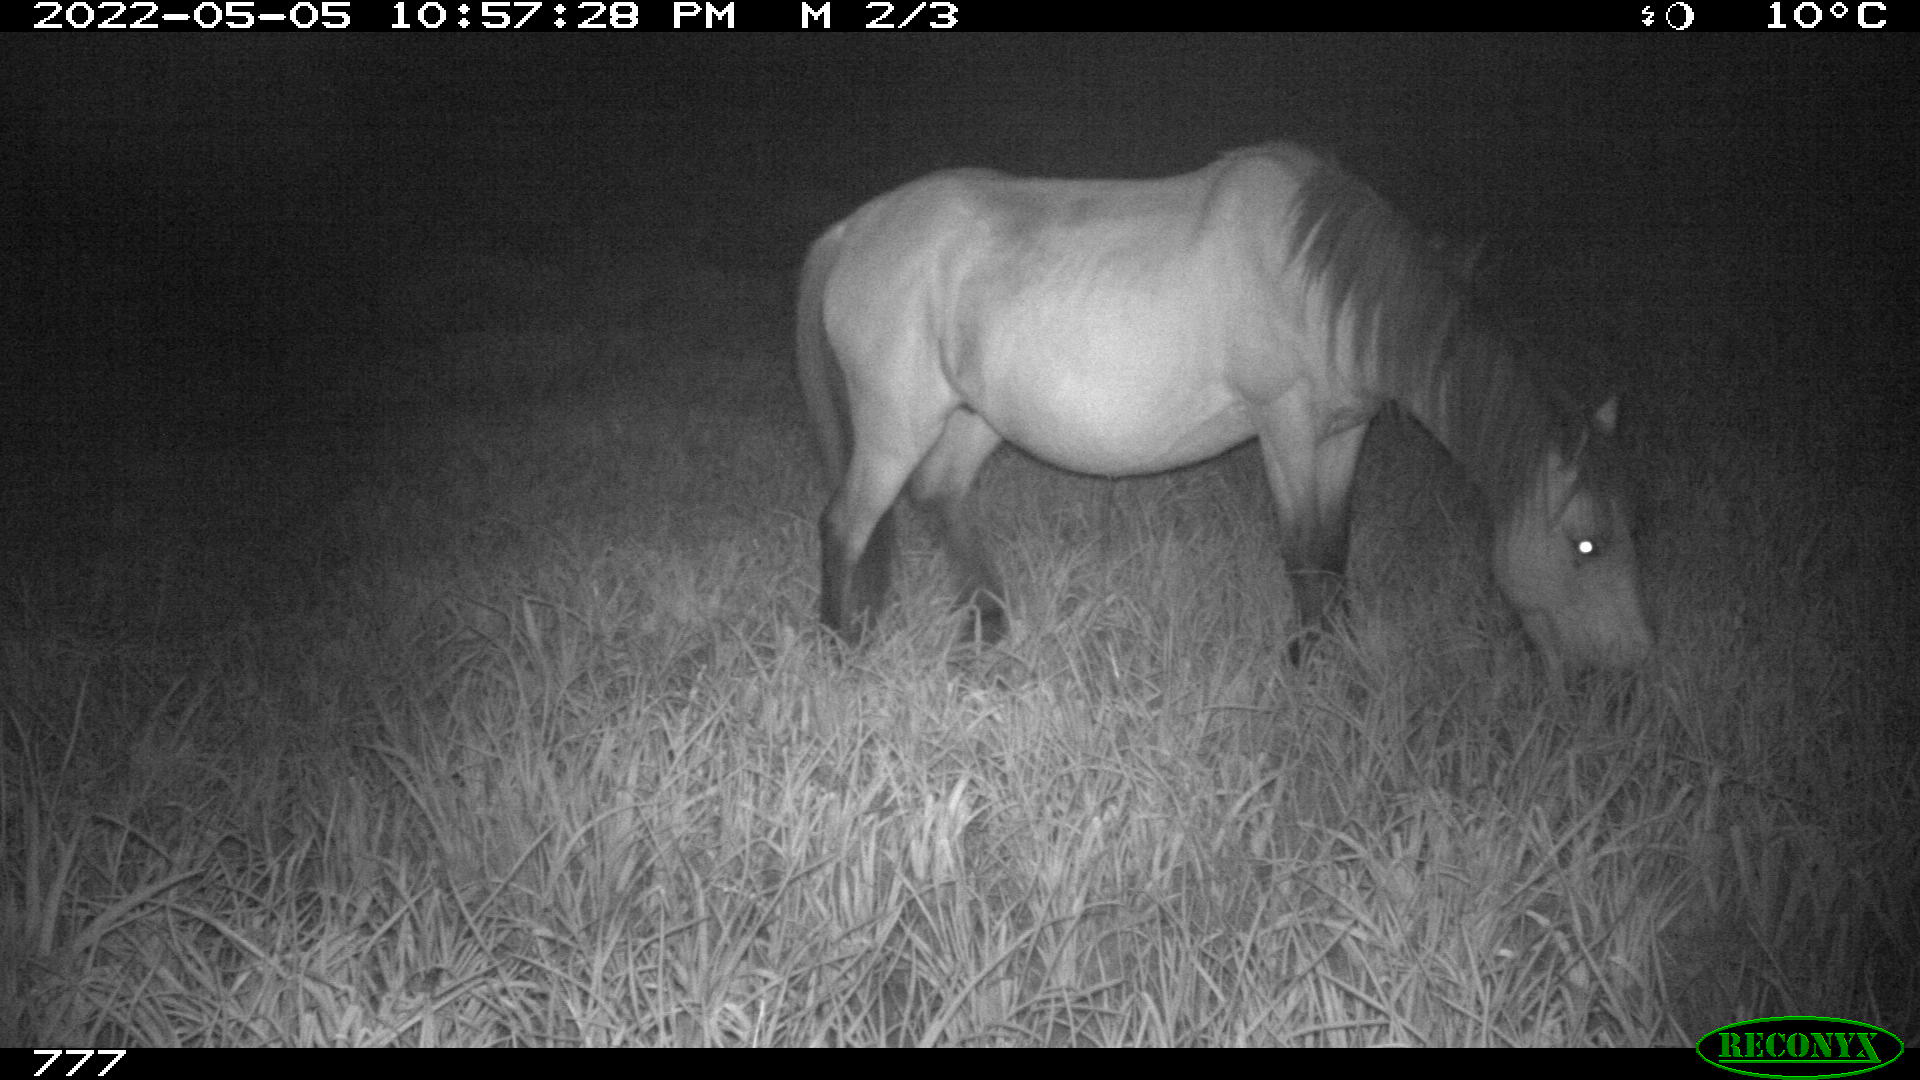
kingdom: Animalia
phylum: Chordata
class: Mammalia
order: Perissodactyla
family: Equidae
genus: Equus
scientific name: Equus caballus
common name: Horse
